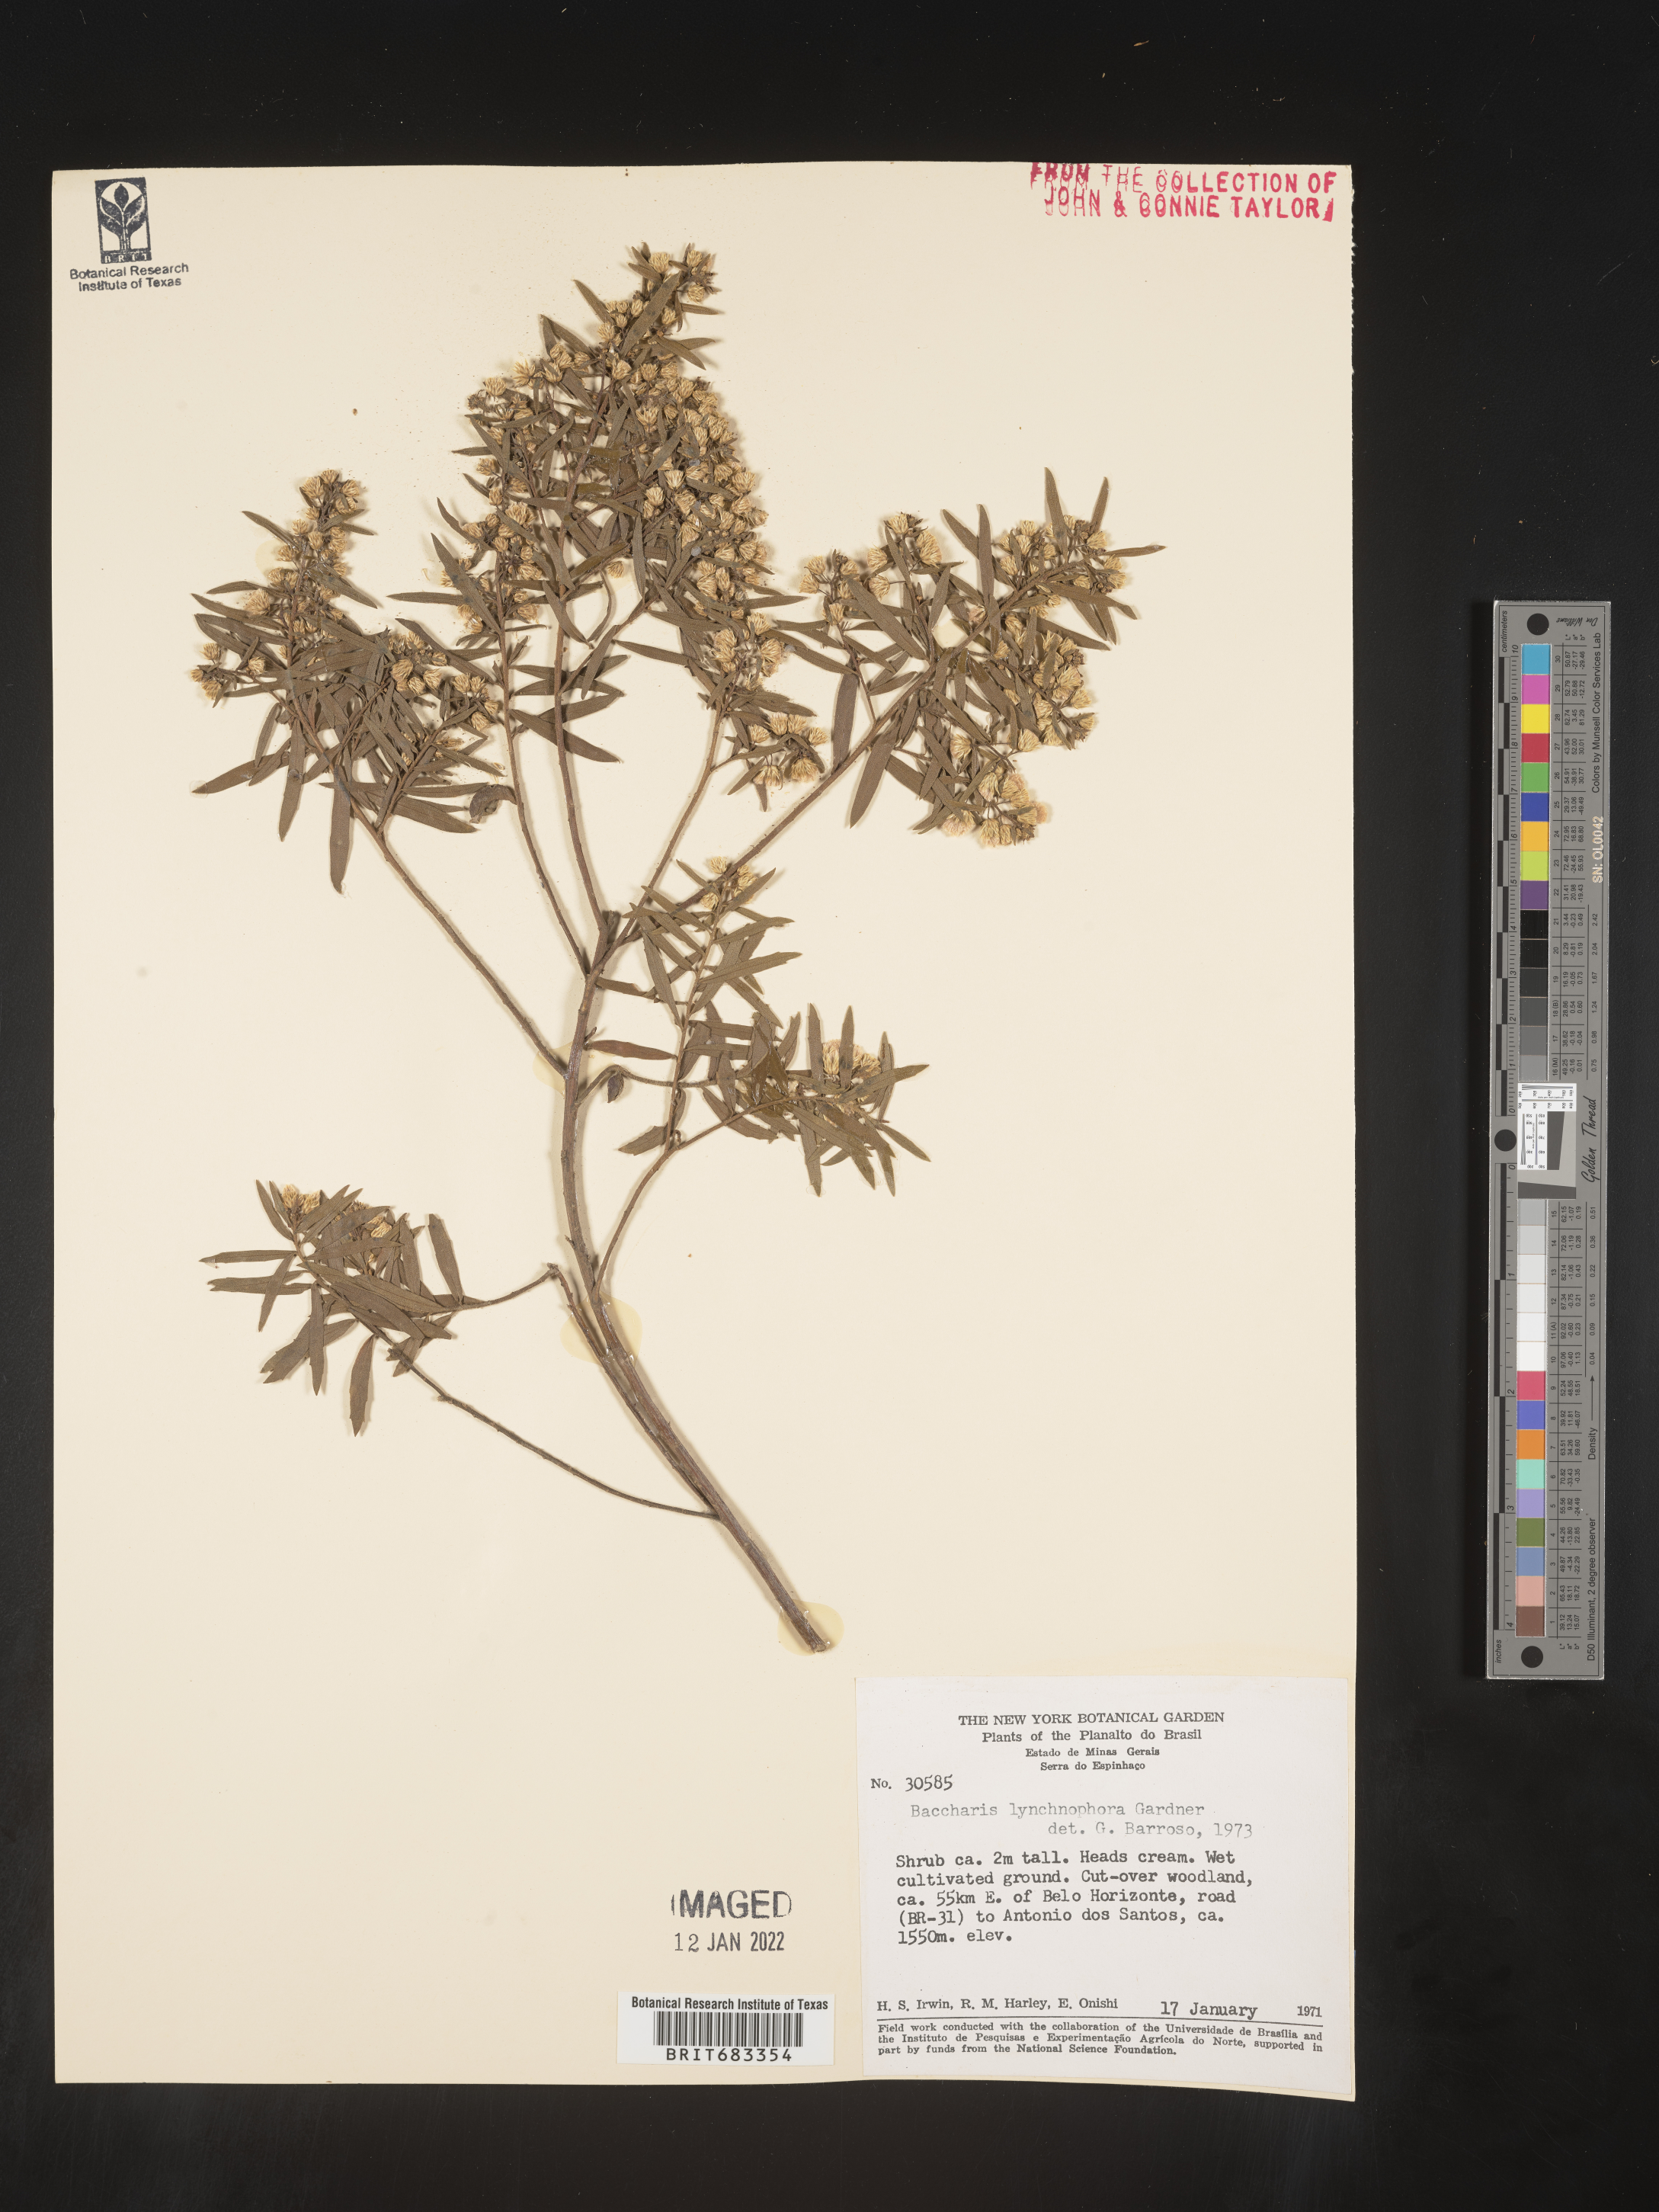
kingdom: Plantae
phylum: Tracheophyta
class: Magnoliopsida
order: Asterales
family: Asteraceae
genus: Baccharis
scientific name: Baccharis
